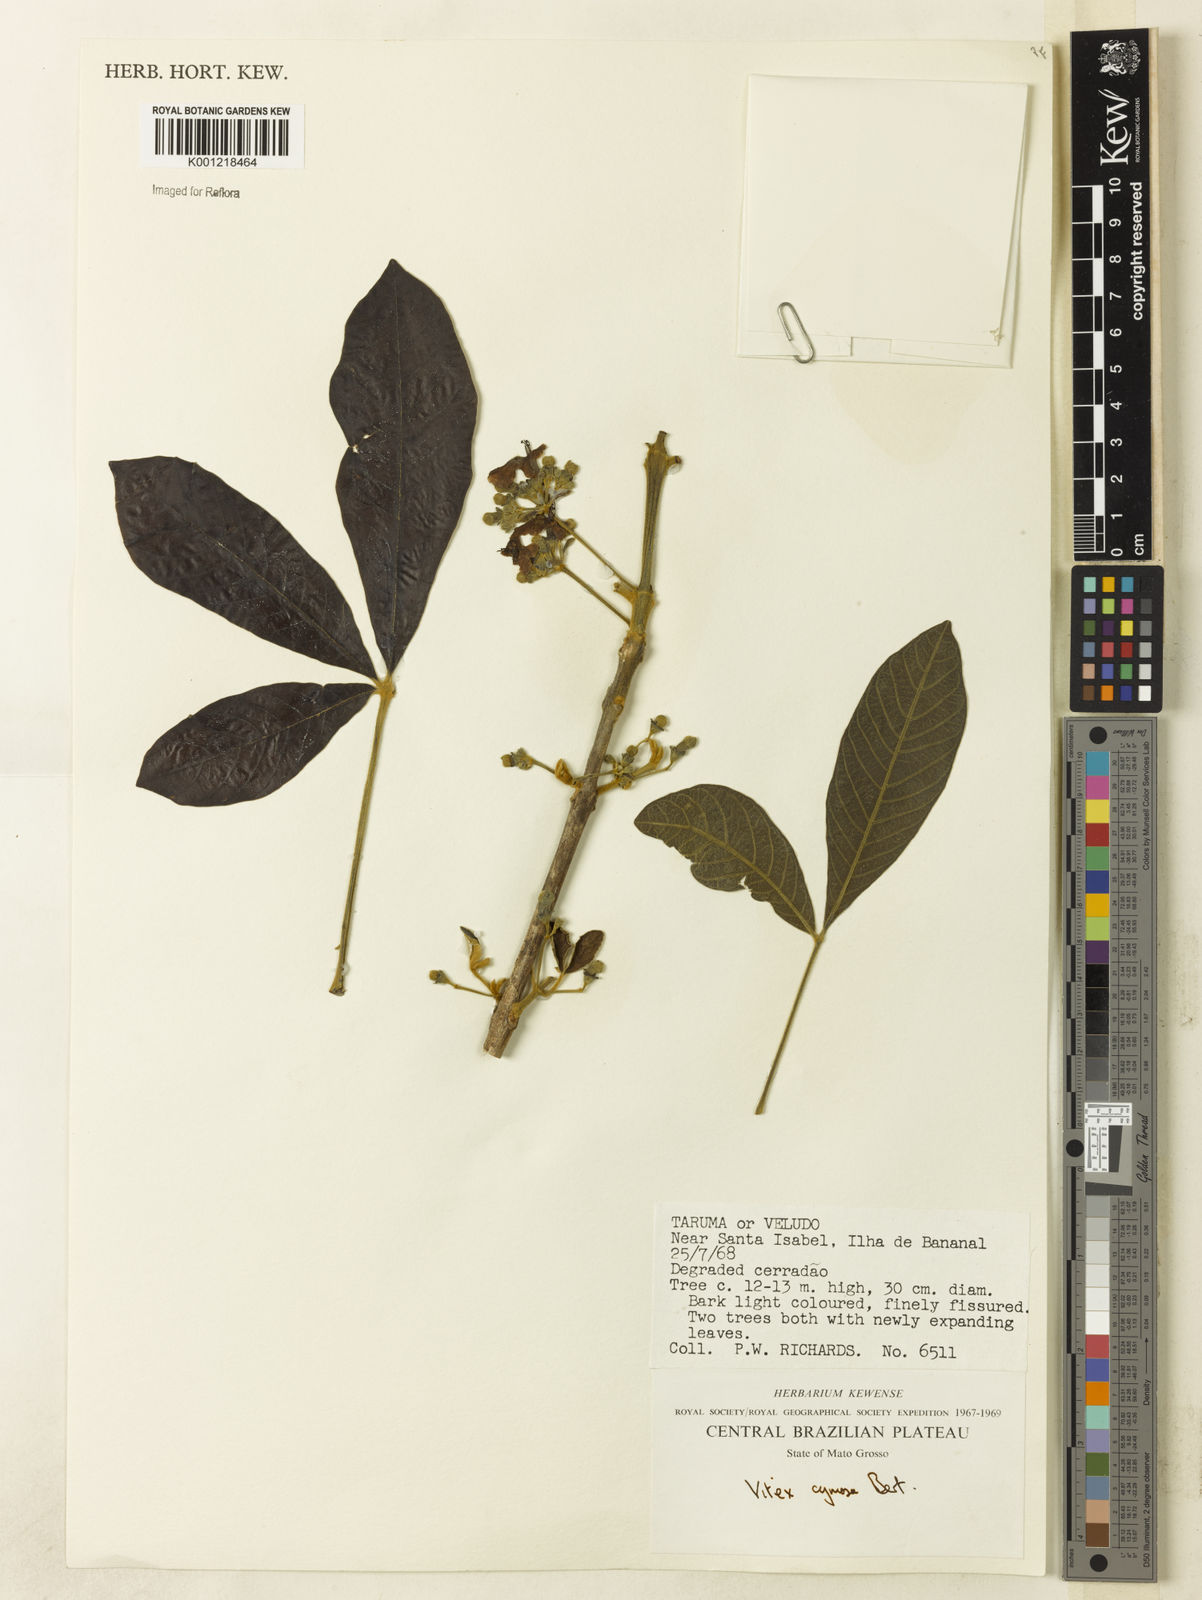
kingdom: Plantae
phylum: Tracheophyta
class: Magnoliopsida
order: Lamiales
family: Lamiaceae
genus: Vitex
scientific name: Vitex cymosa
